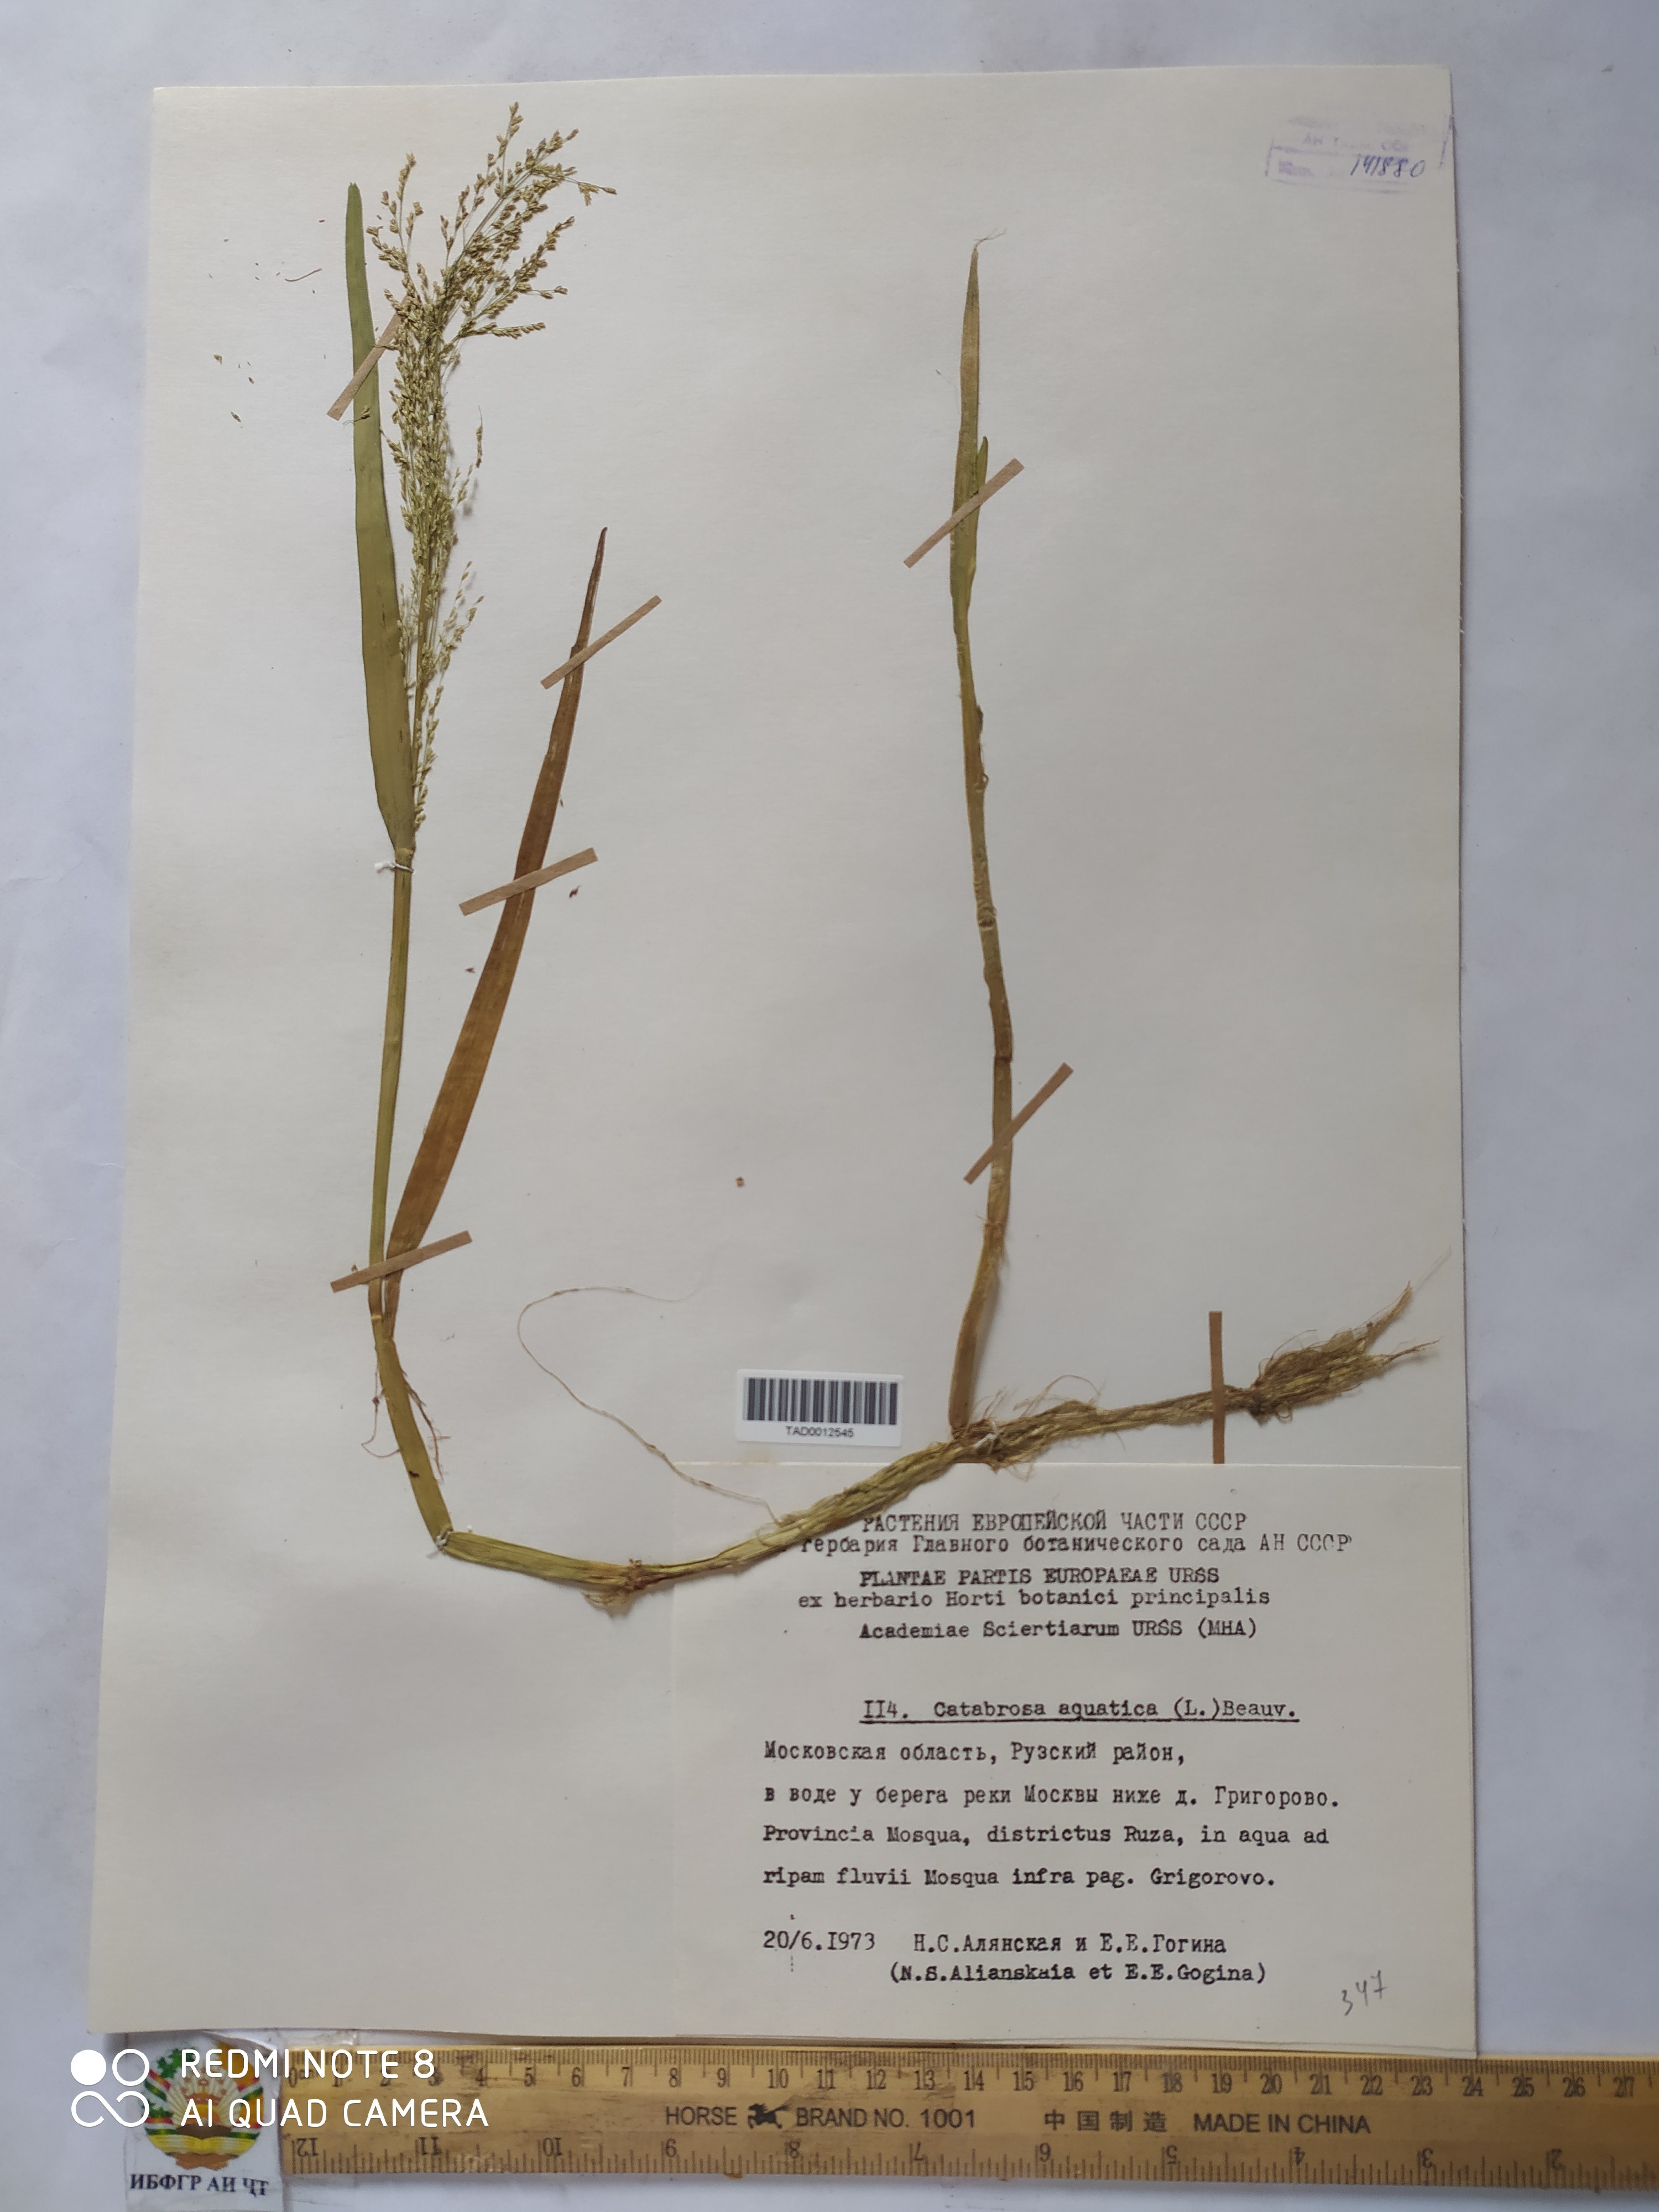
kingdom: Plantae
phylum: Tracheophyta
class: Liliopsida
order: Poales
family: Poaceae
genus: Catabrosa
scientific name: Catabrosa aquatica
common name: Whorl-grass
